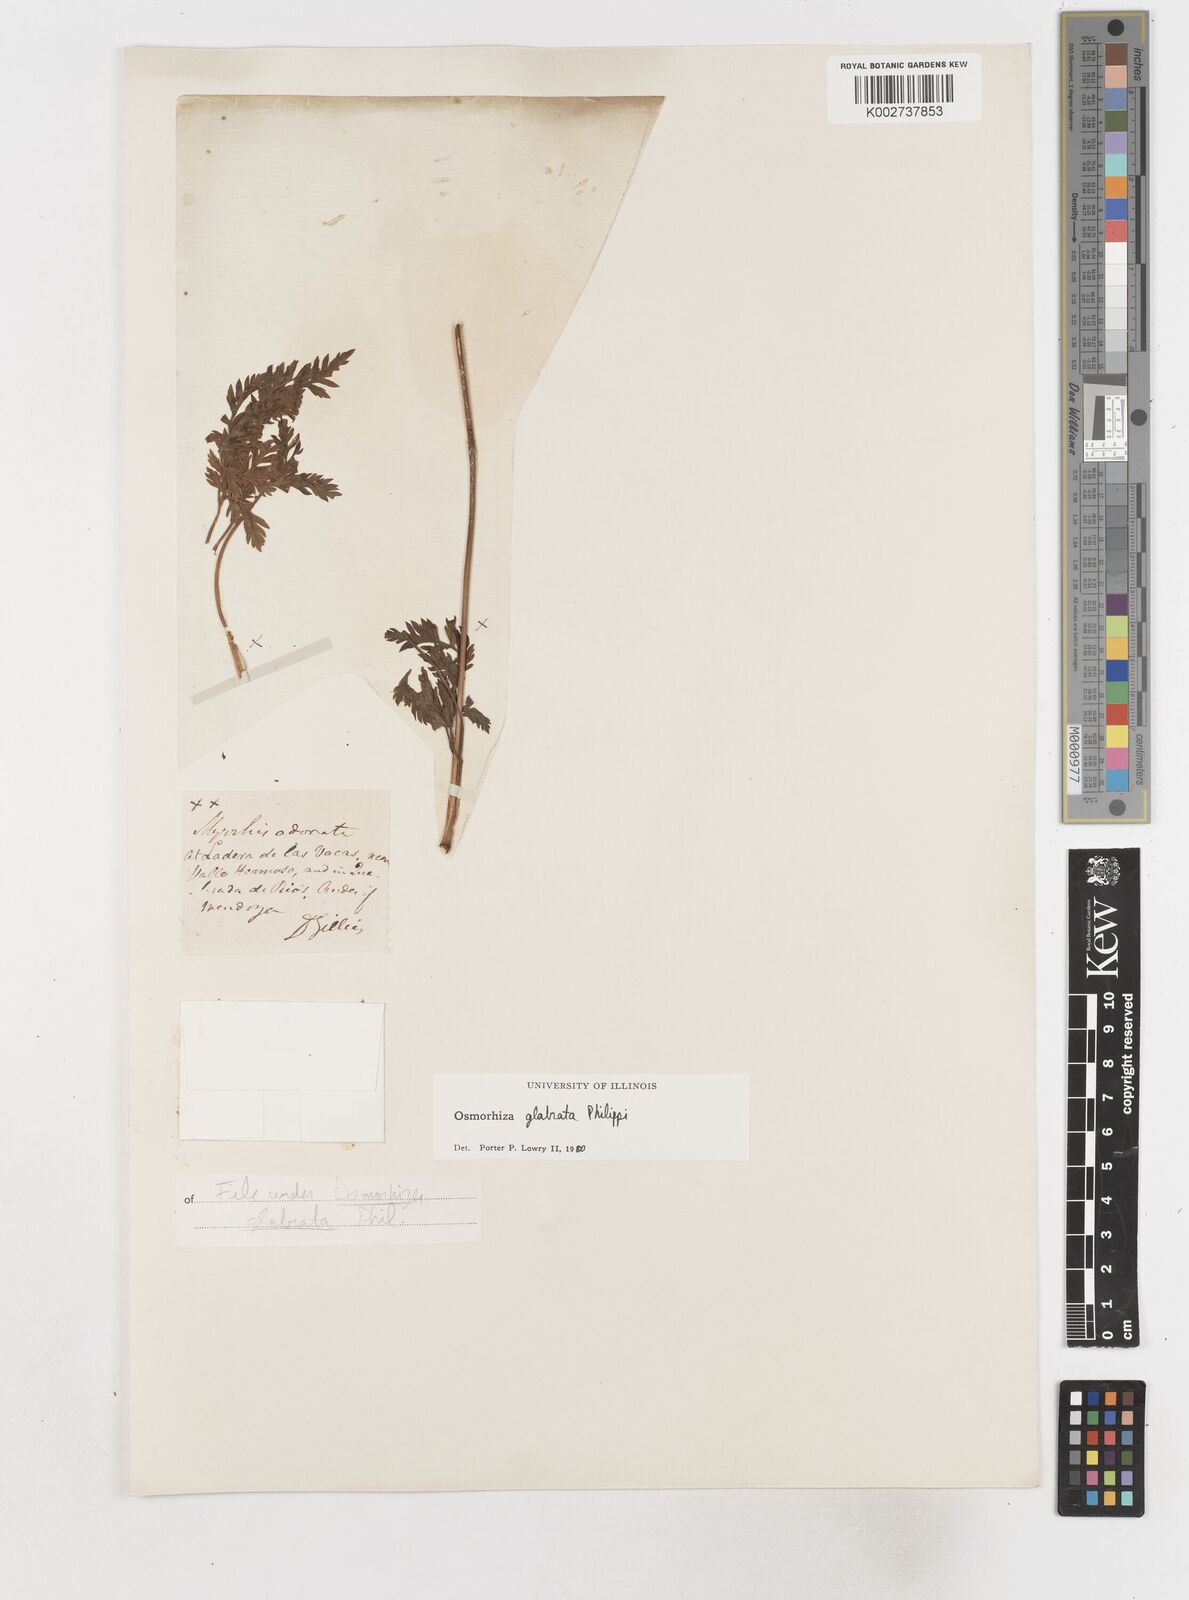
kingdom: Plantae
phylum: Tracheophyta
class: Magnoliopsida
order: Apiales
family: Apiaceae
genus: Osmorhiza
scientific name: Osmorhiza glabrata
